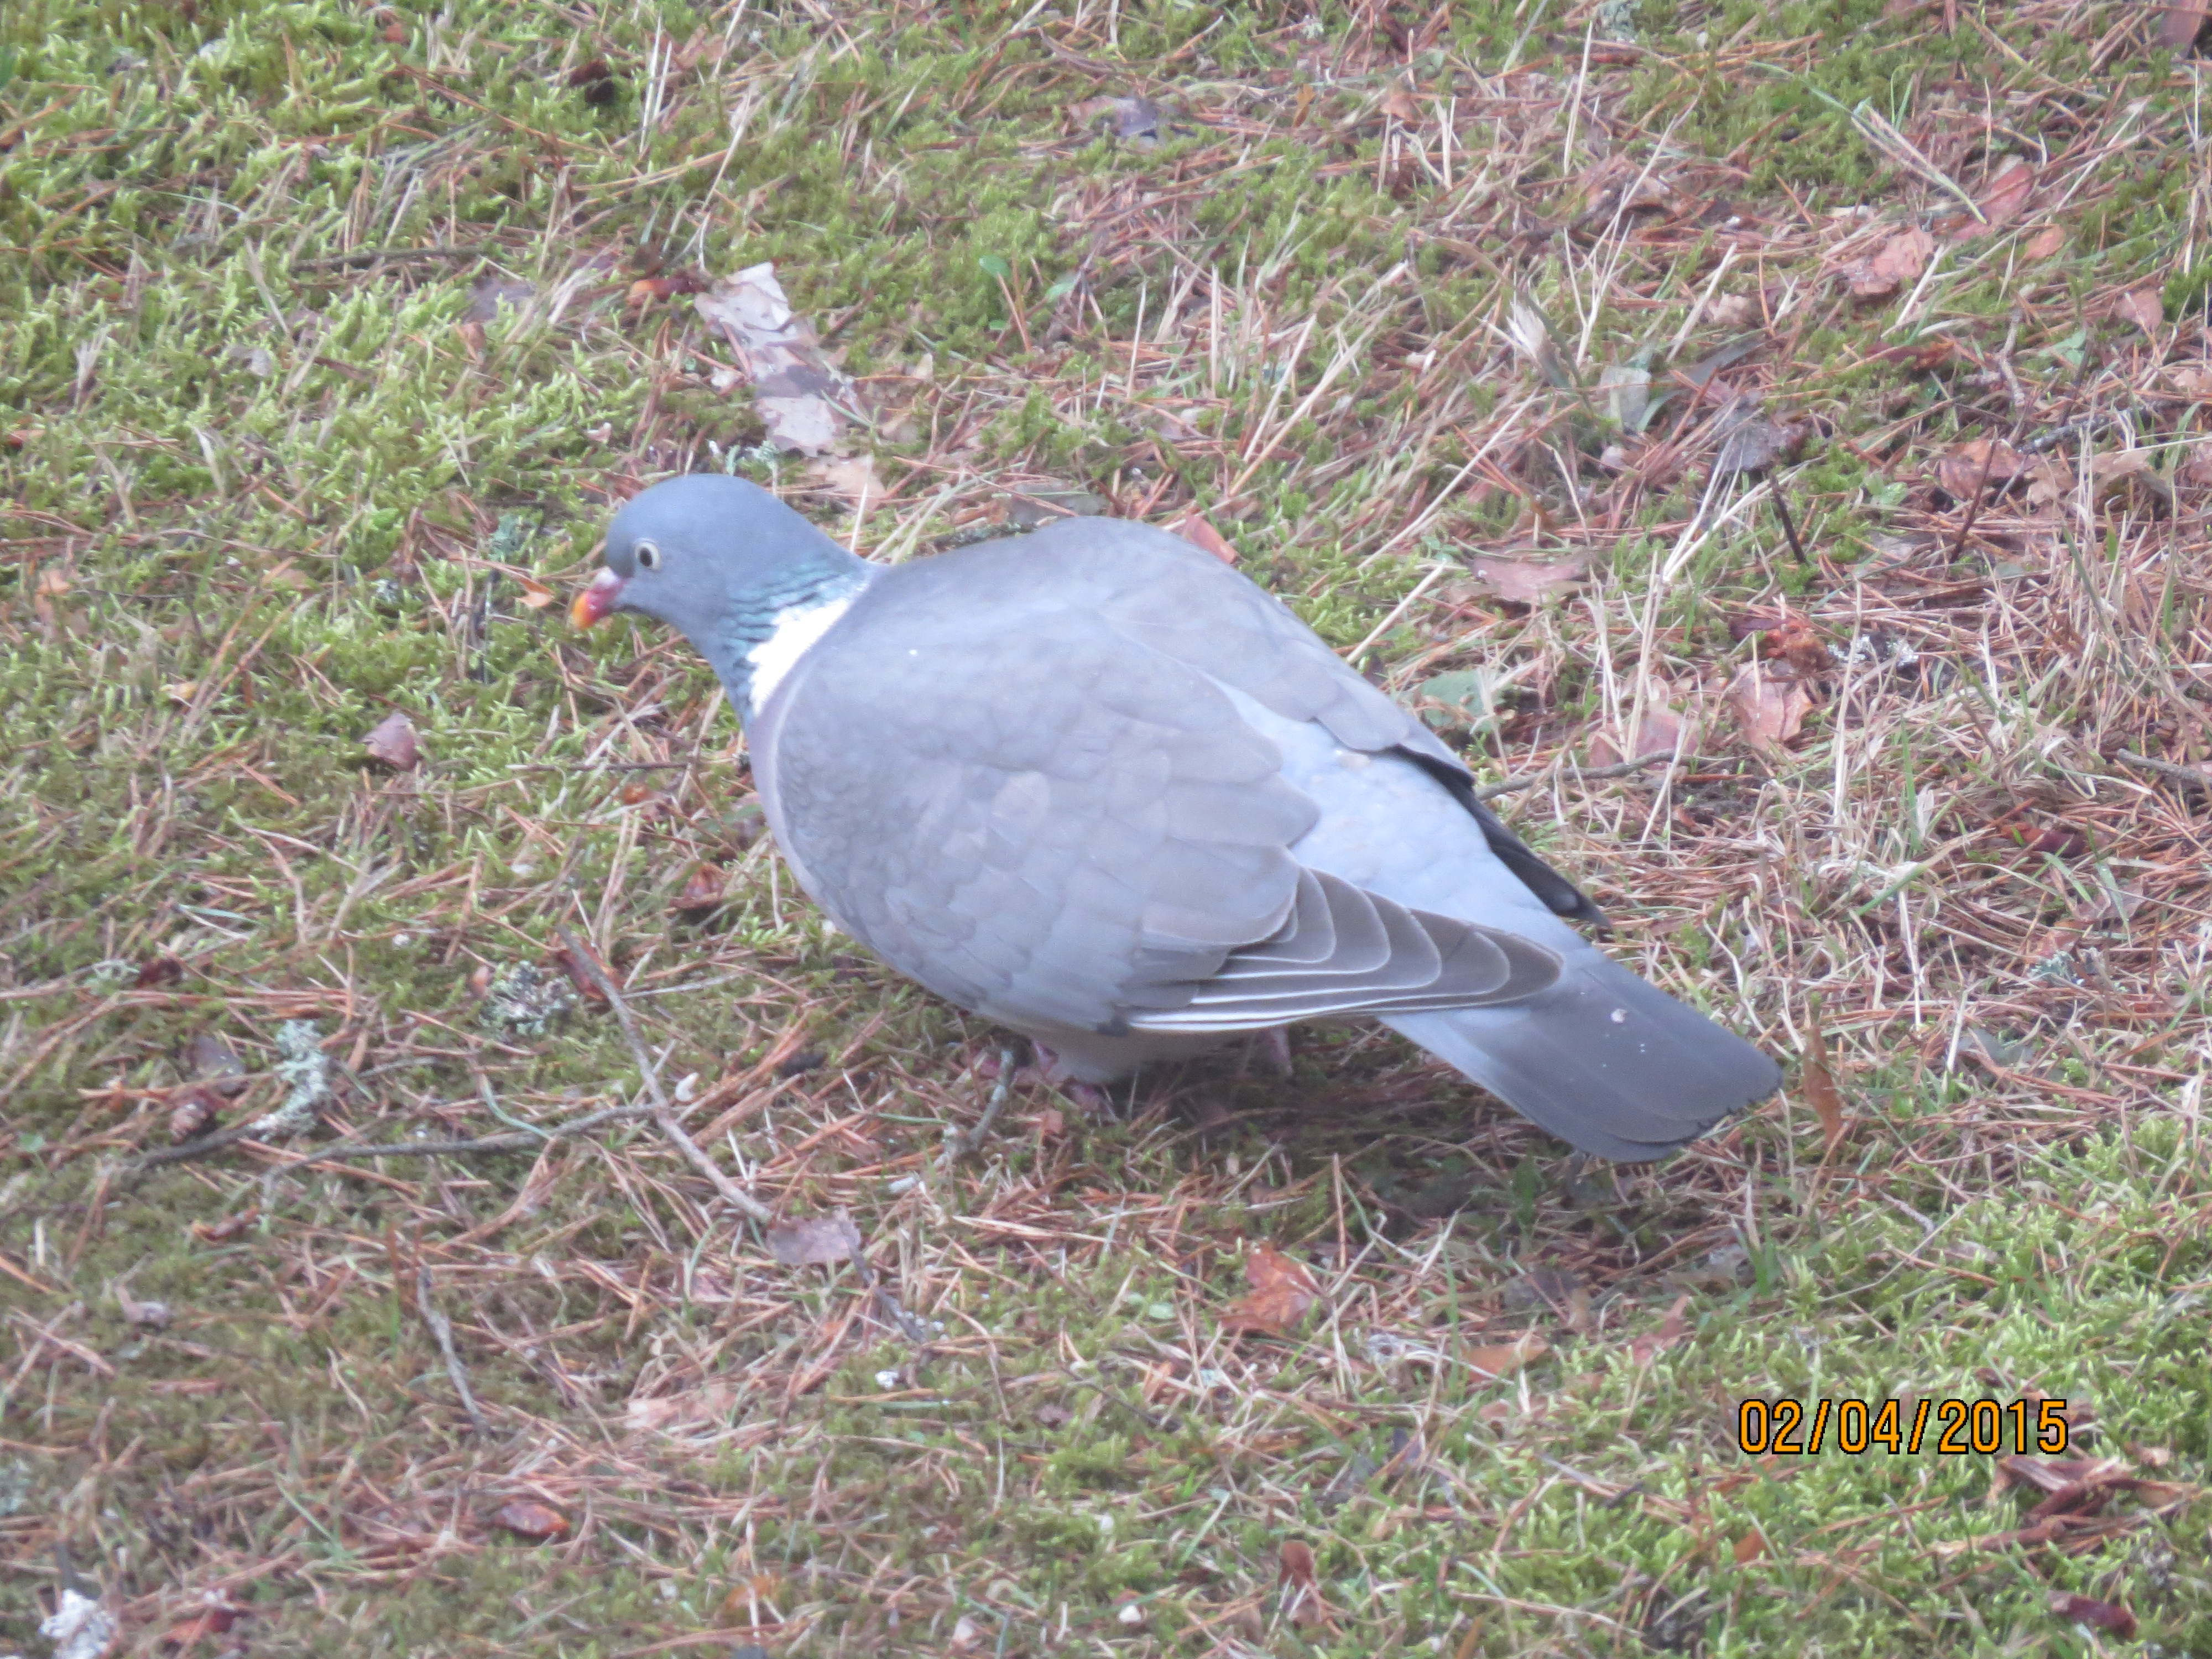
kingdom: Animalia
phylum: Chordata
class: Aves
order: Columbiformes
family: Columbidae
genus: Columba
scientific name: Columba palumbus
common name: Common wood pigeon
